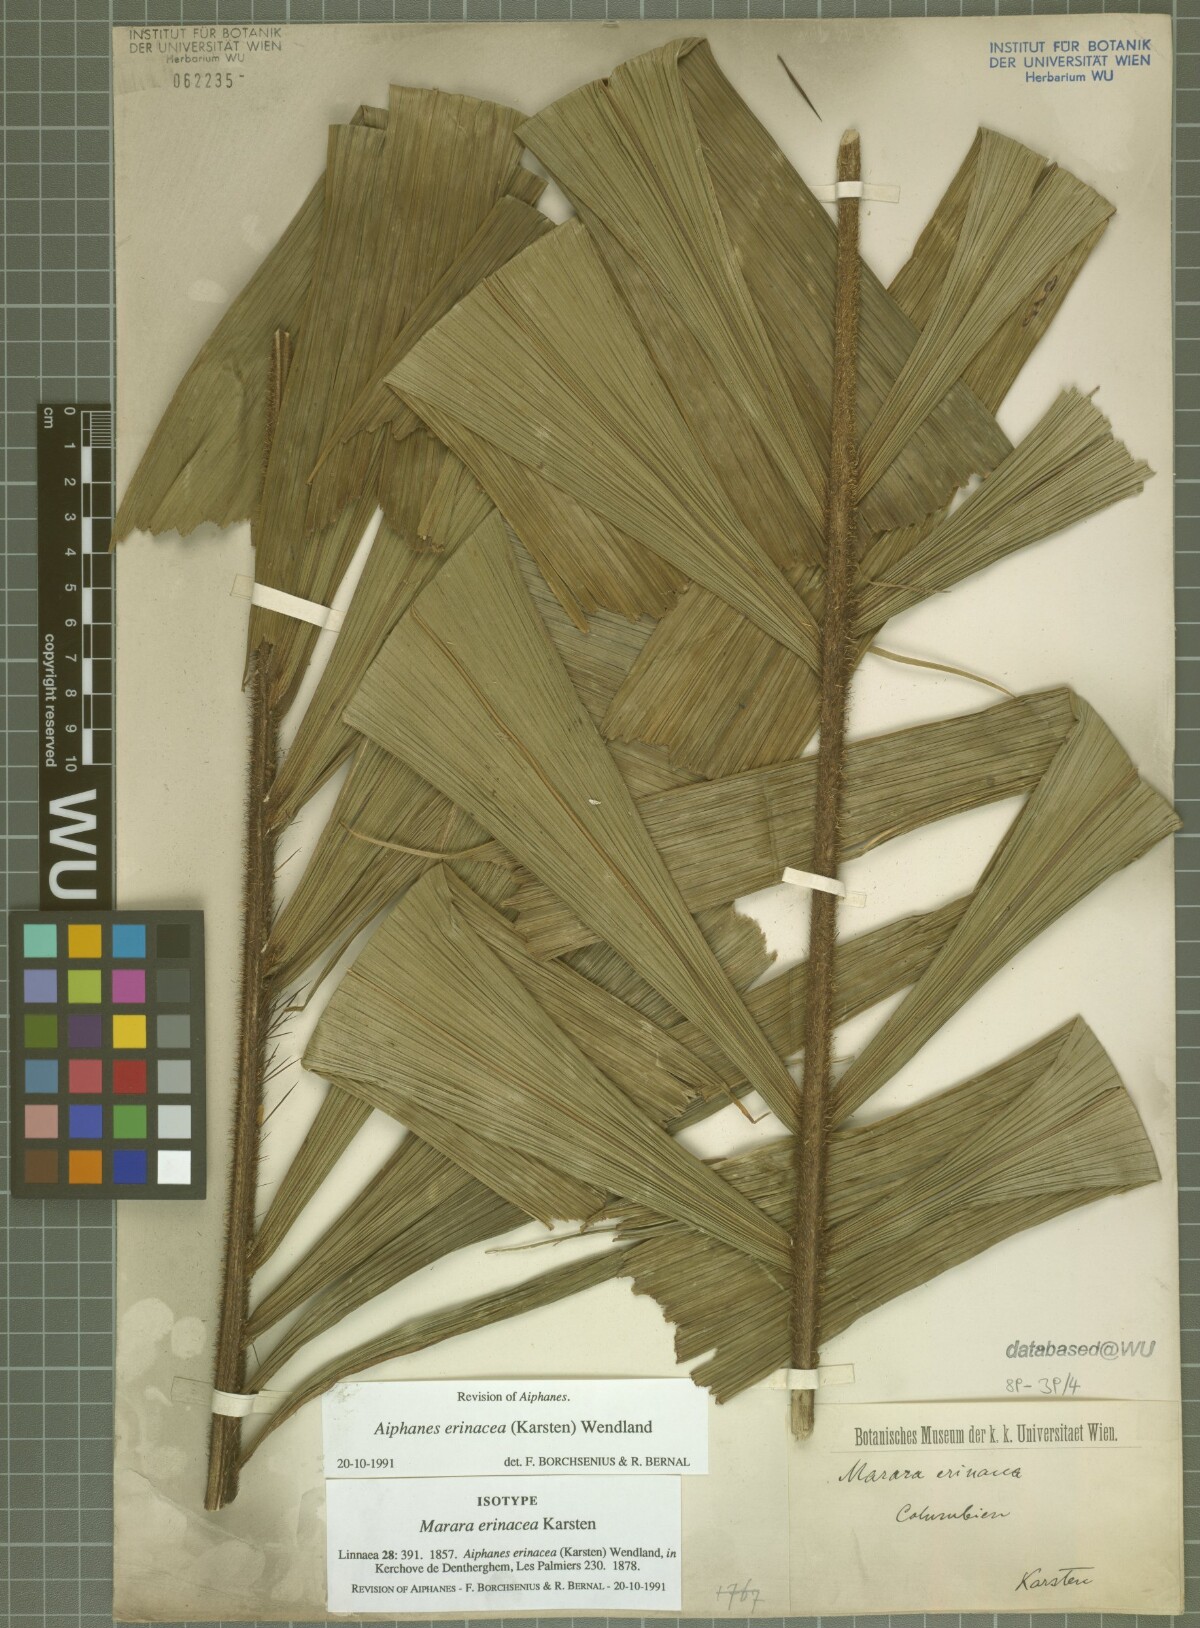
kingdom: Plantae
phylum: Tracheophyta
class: Liliopsida
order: Arecales
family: Arecaceae
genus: Aiphanes
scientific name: Aiphanes erinacea
